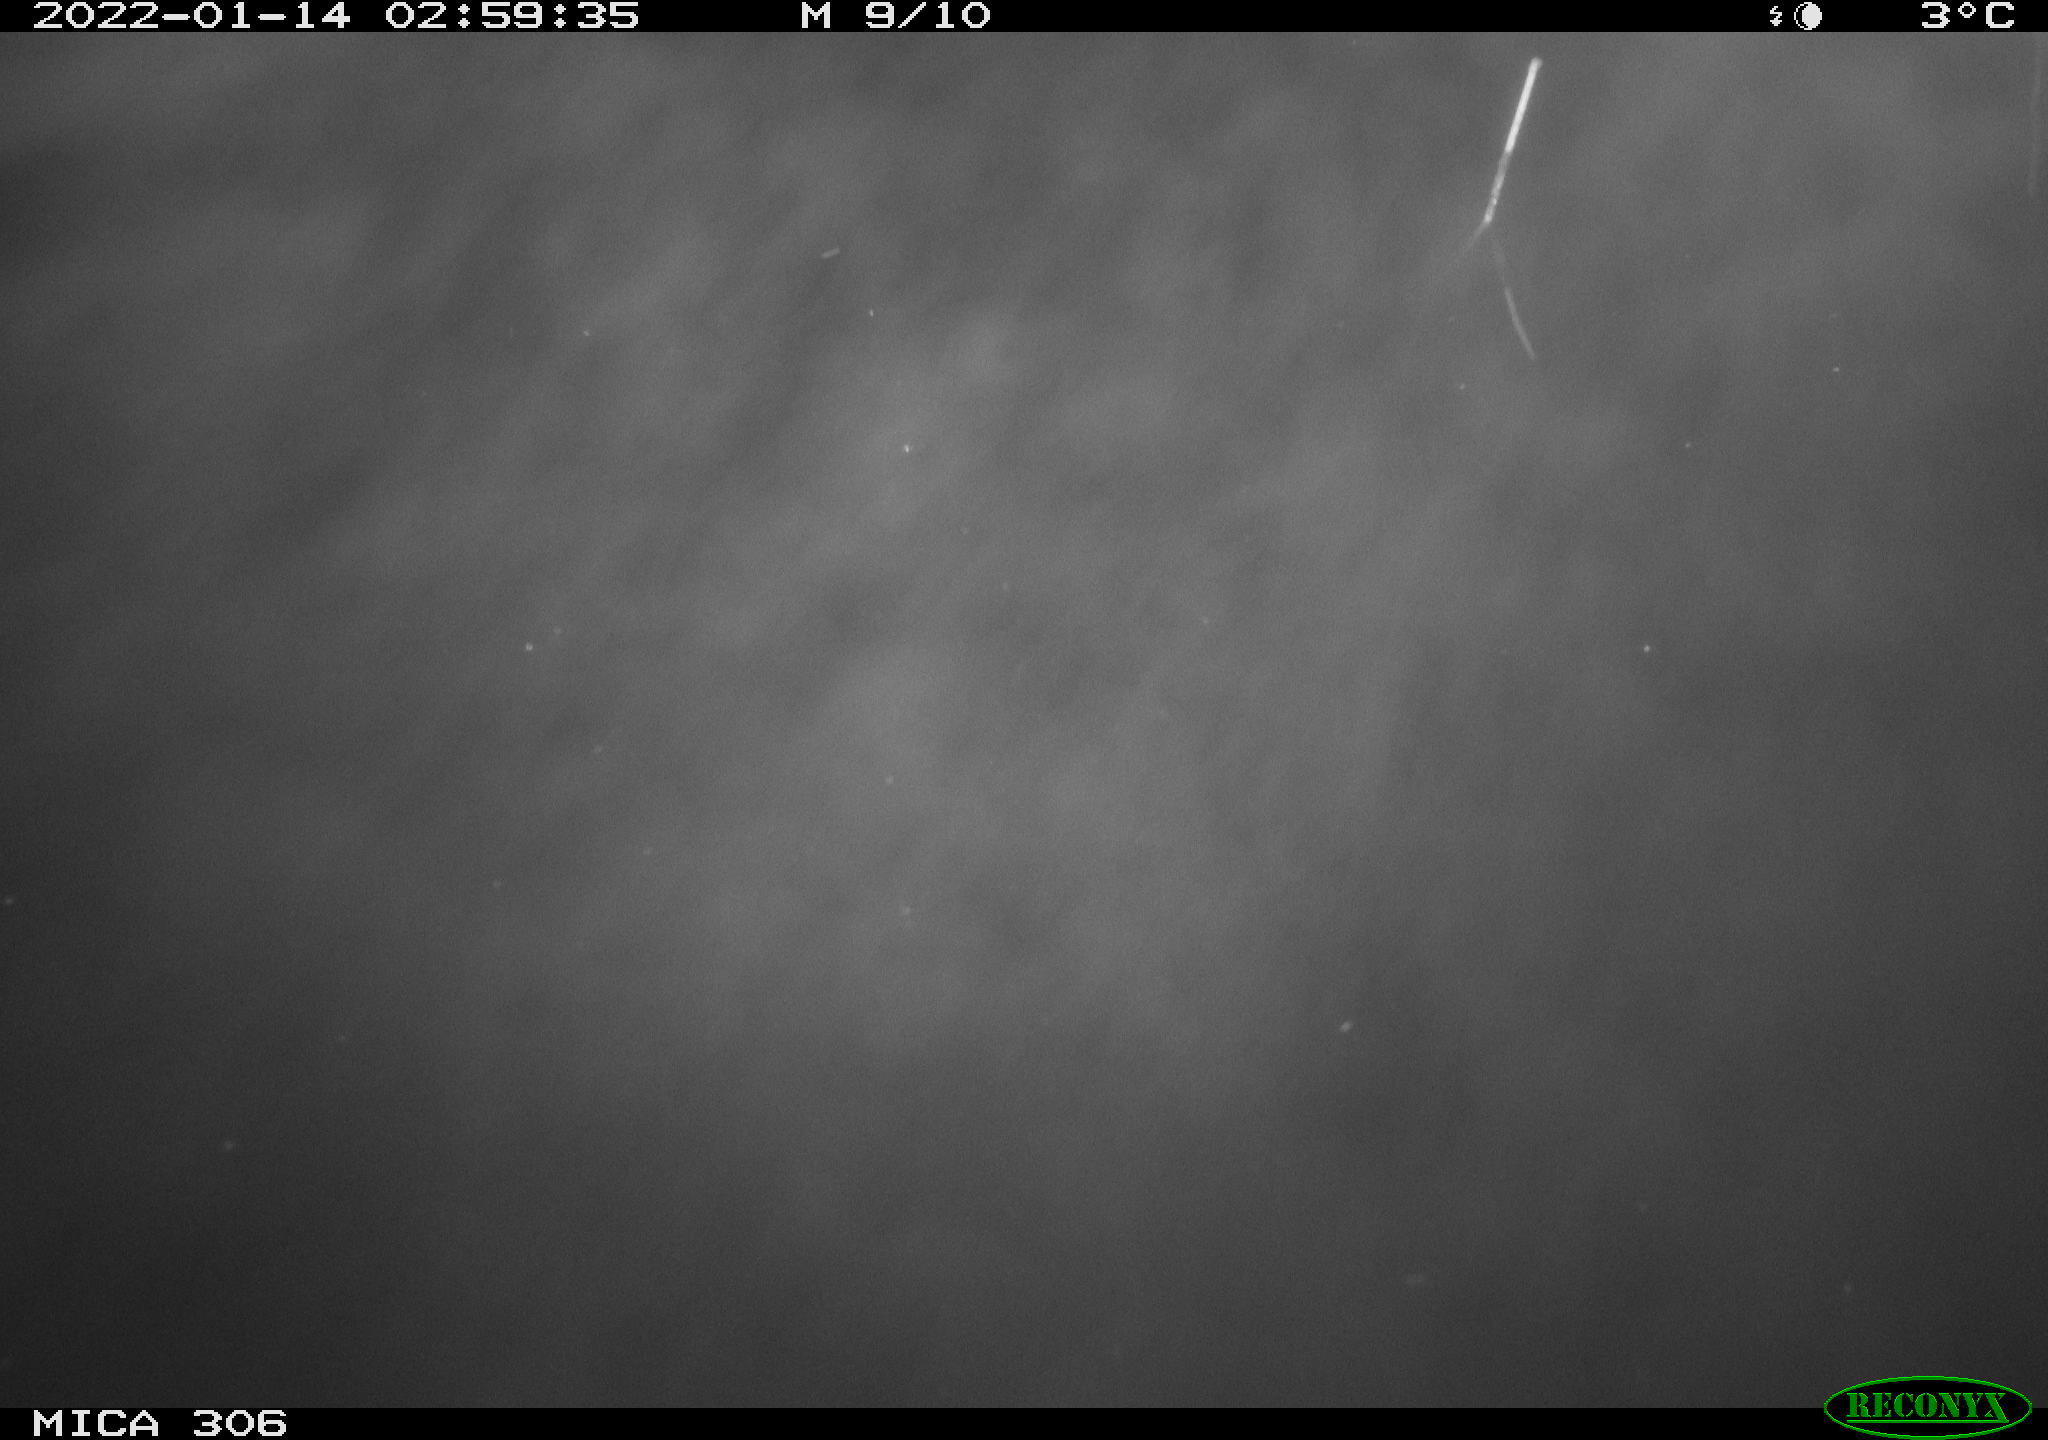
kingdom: Animalia
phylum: Chordata
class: Aves
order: Anseriformes
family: Anatidae
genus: Anas
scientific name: Anas platyrhynchos
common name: Mallard
